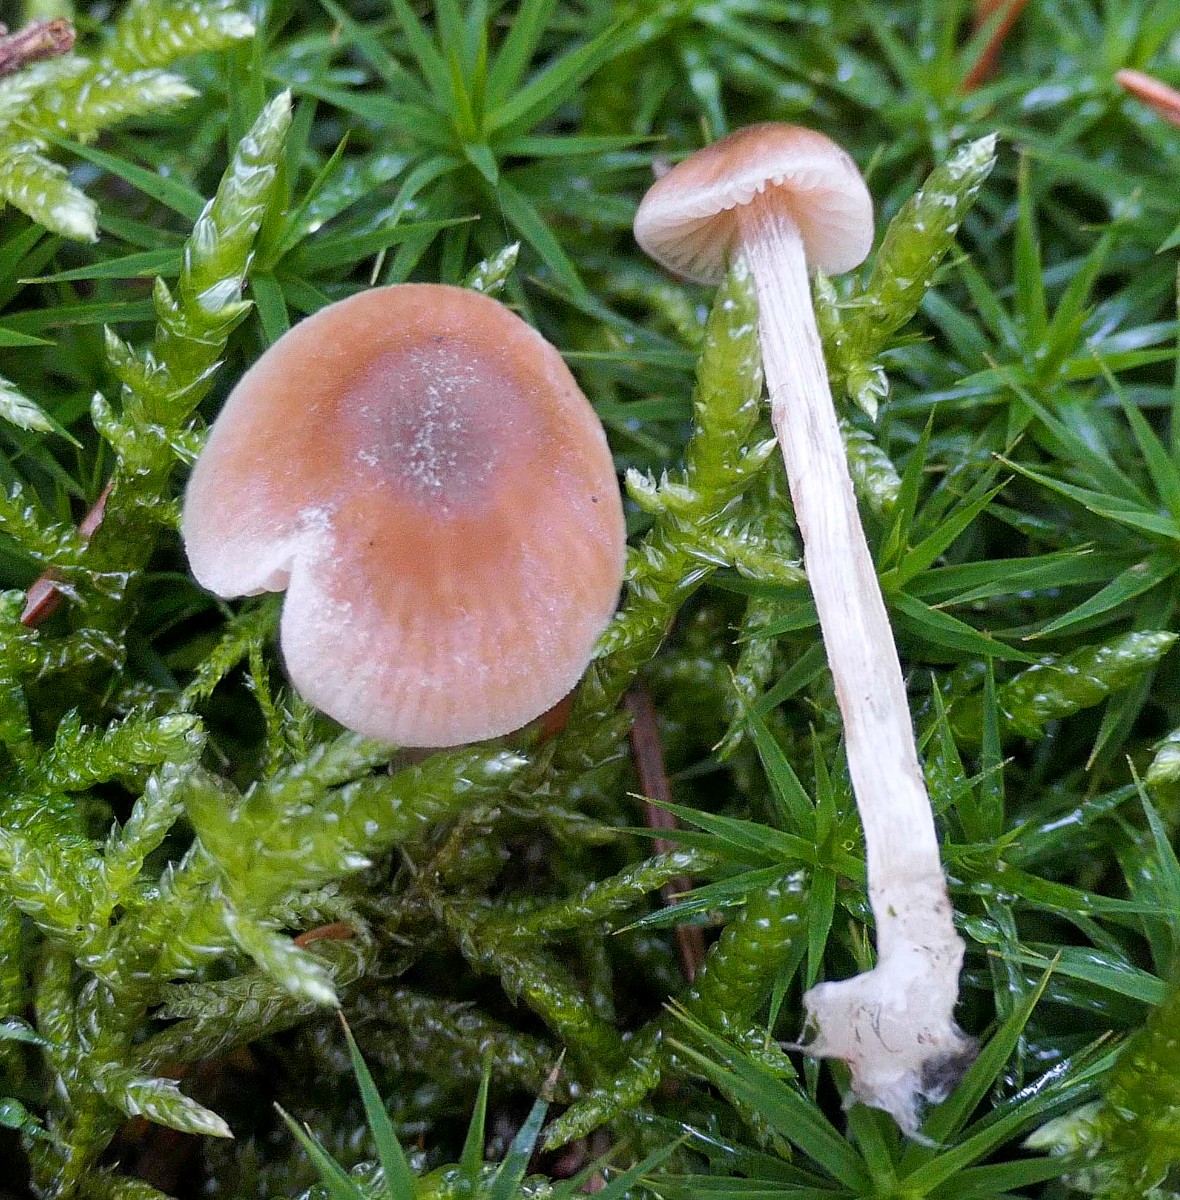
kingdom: Fungi
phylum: Basidiomycota
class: Agaricomycetes
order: Agaricales
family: Entolomataceae
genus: Entoloma
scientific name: Entoloma cetratum
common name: voks-rødblad
